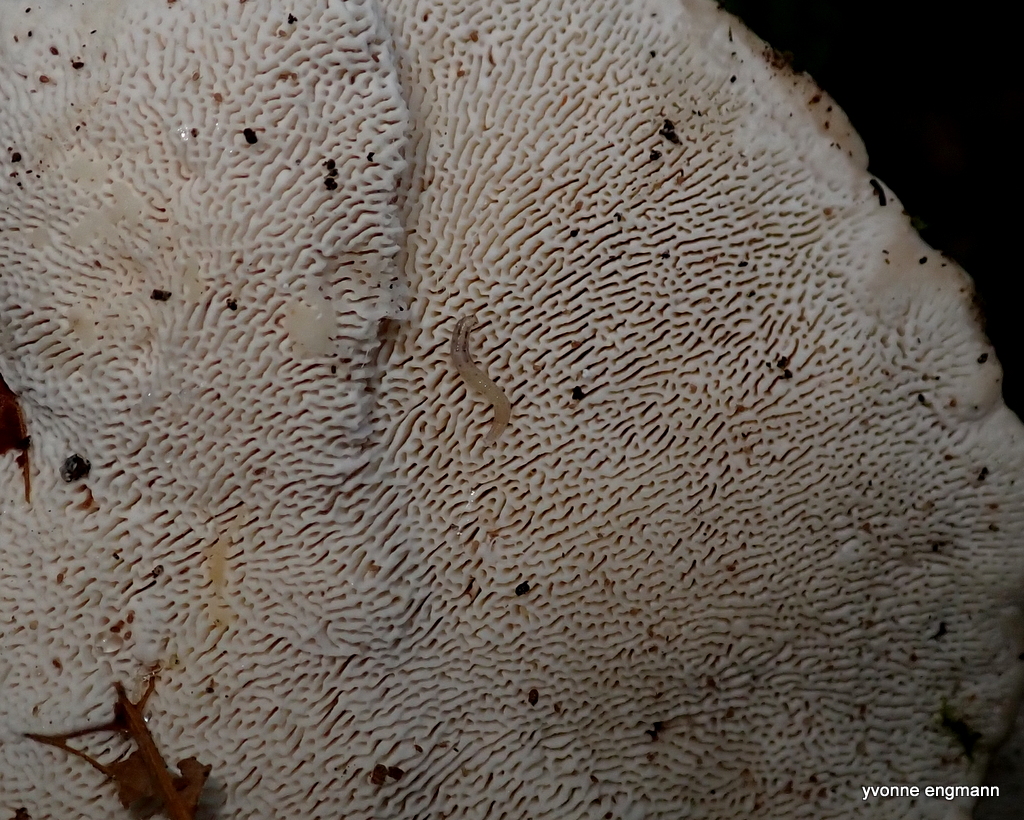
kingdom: Fungi
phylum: Basidiomycota
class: Agaricomycetes
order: Polyporales
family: Polyporaceae
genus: Trametes
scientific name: Trametes gibbosa
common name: puklet læderporesvamp
